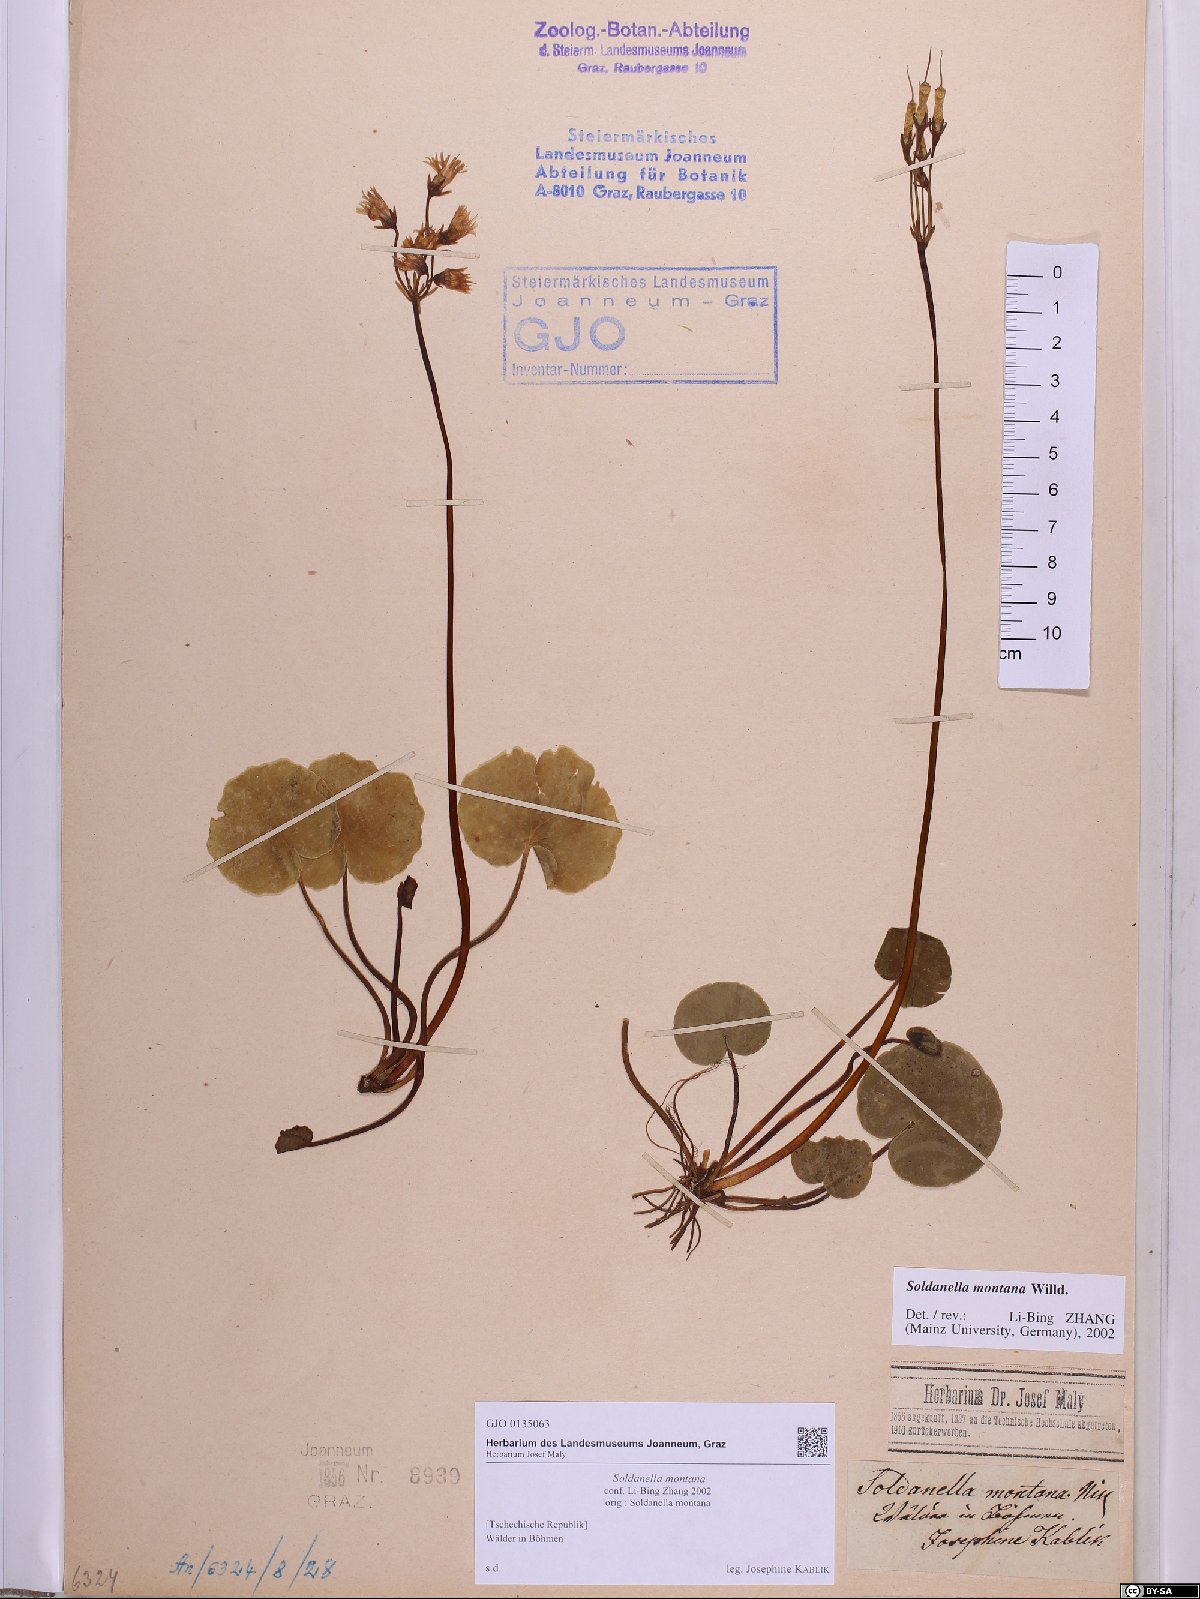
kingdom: Plantae
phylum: Tracheophyta
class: Magnoliopsida
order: Ericales
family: Primulaceae
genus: Soldanella
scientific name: Soldanella montana
